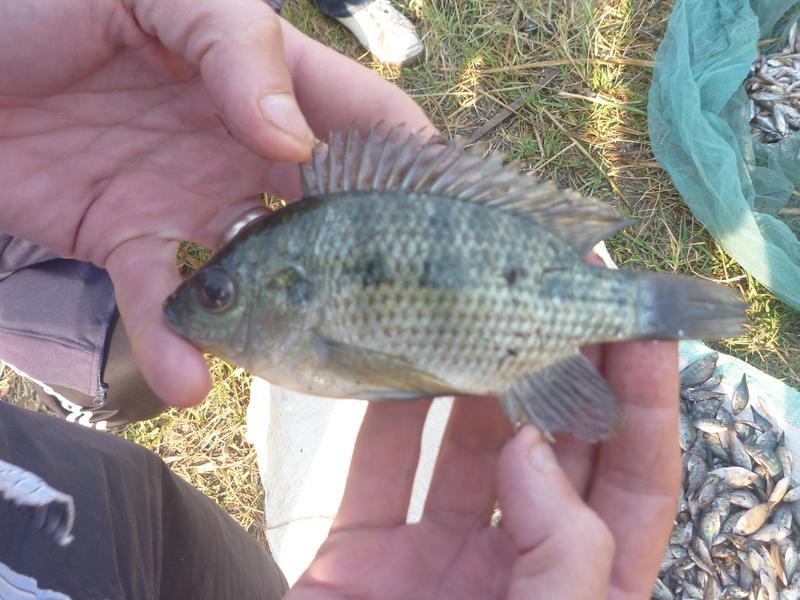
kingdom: Animalia
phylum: Chordata
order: Perciformes
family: Cichlidae
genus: Oreochromis
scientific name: Oreochromis upembae
